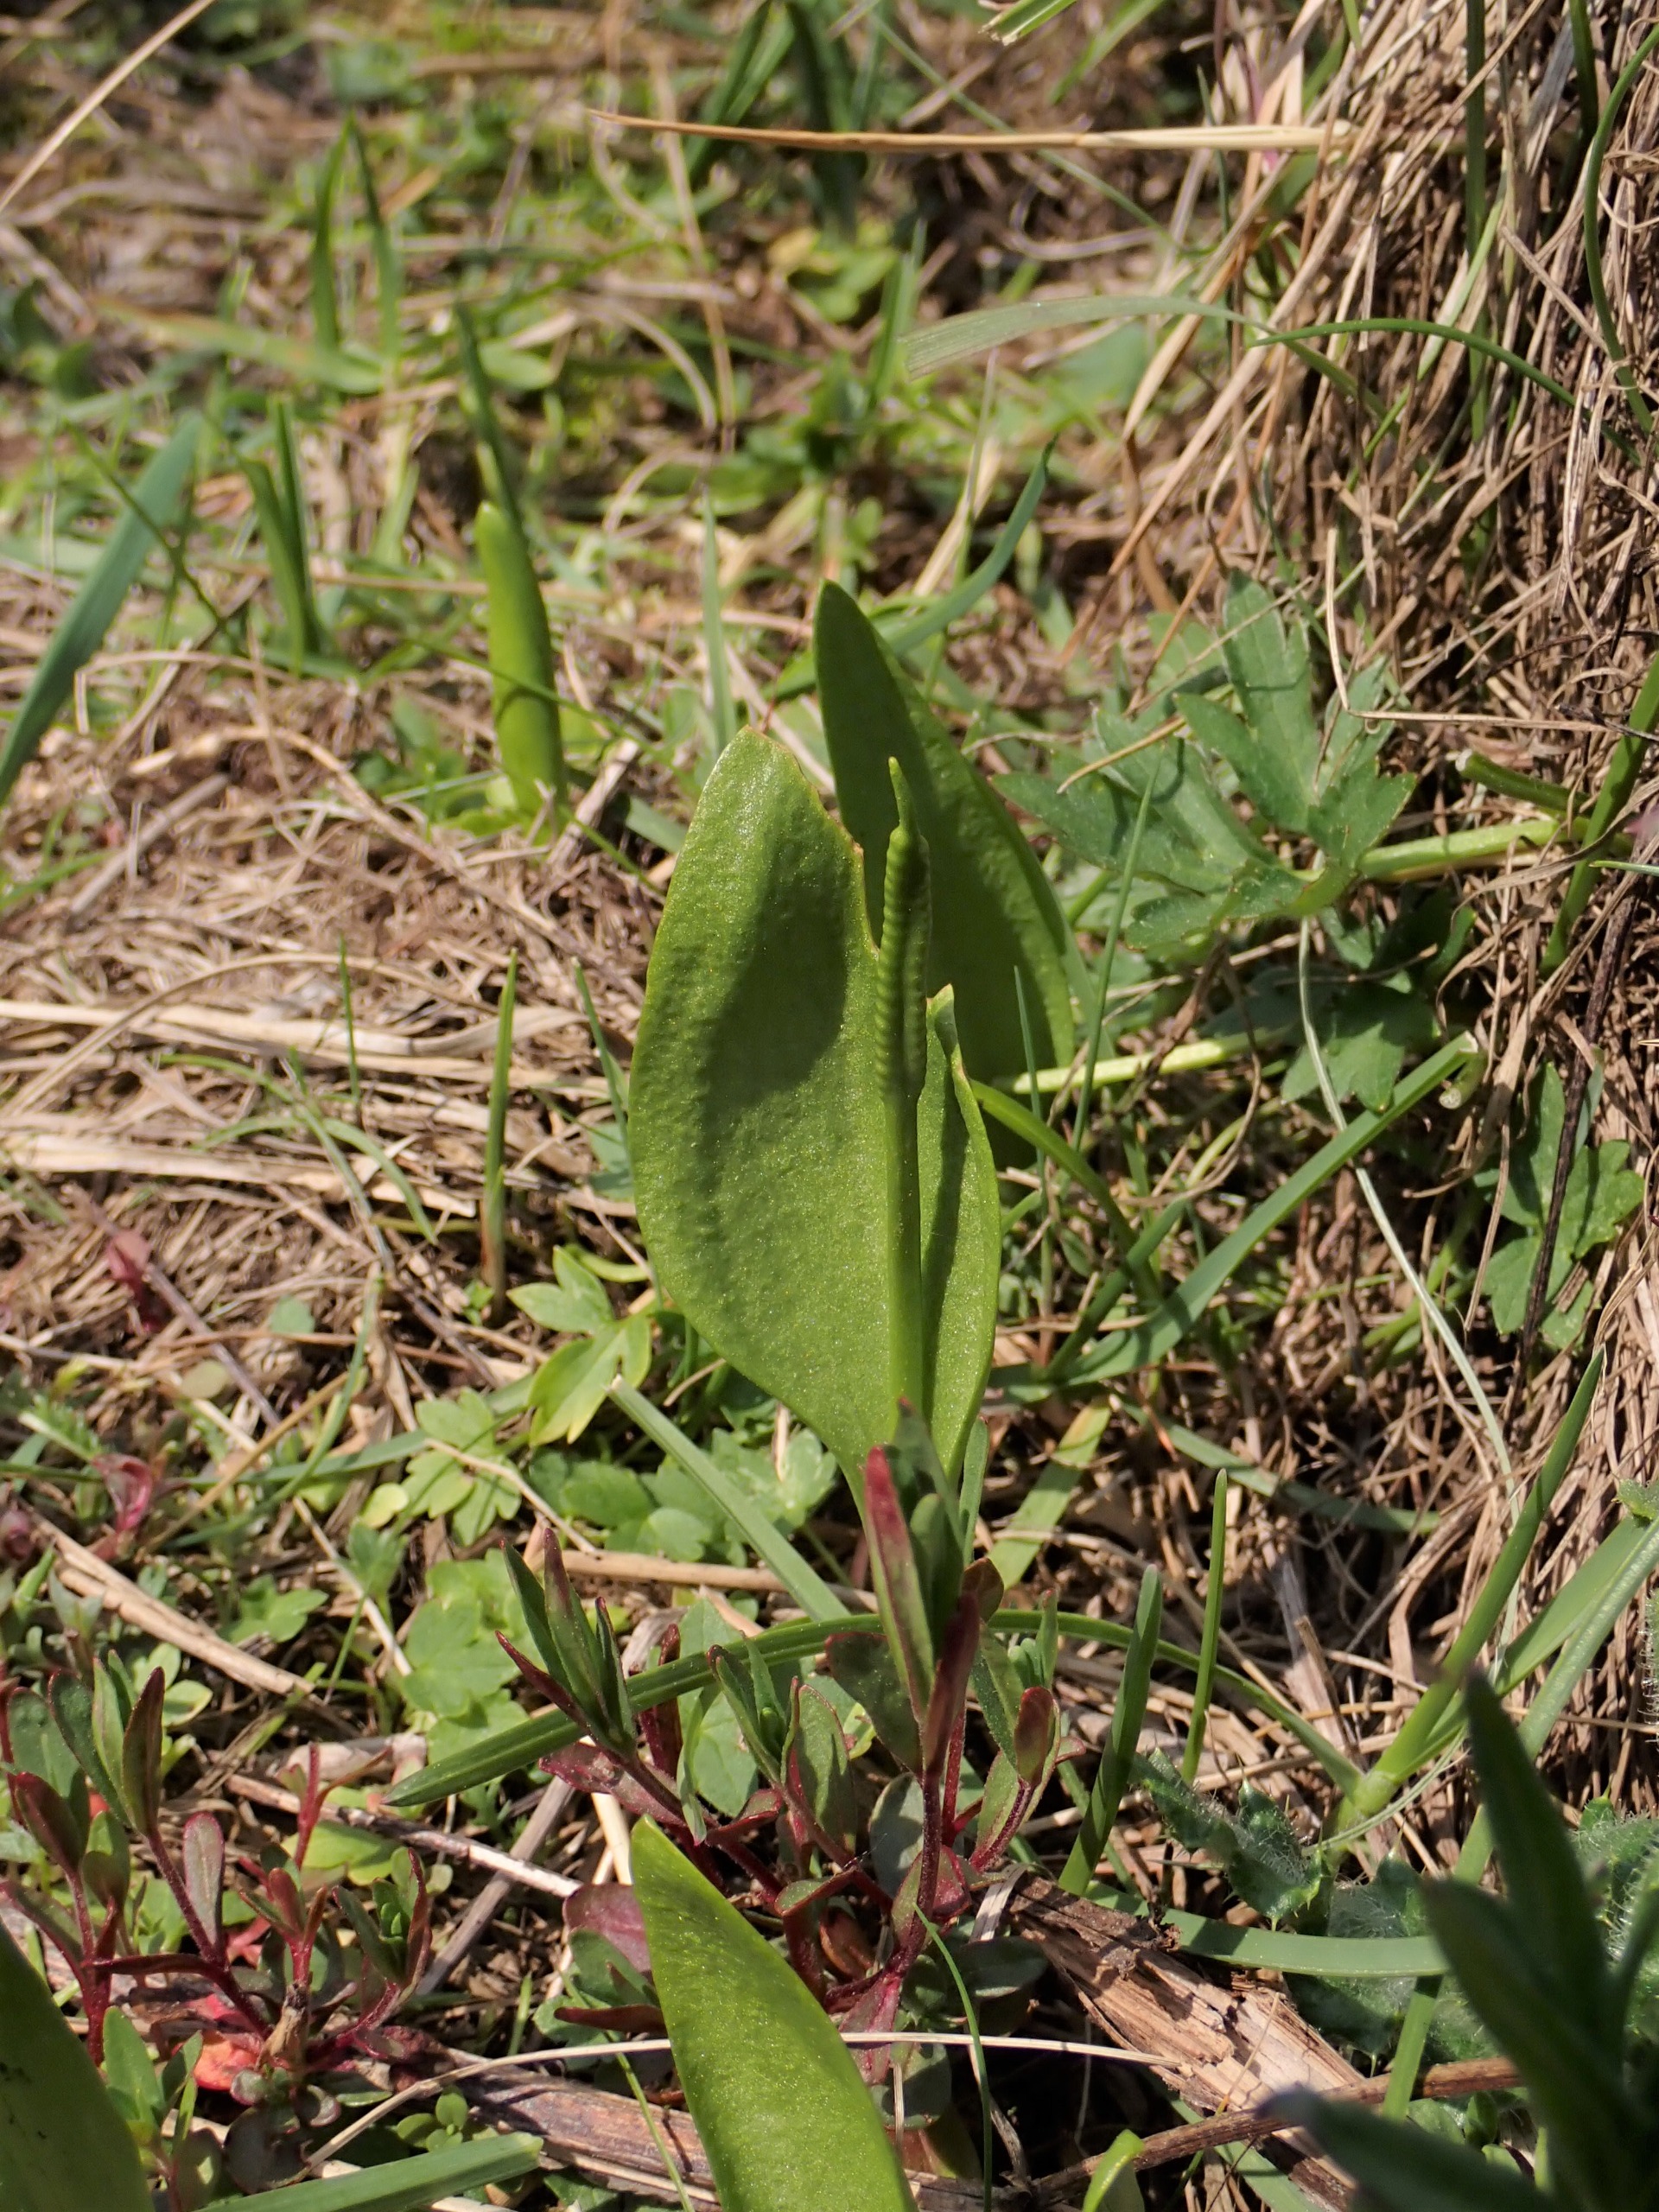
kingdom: Plantae
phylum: Tracheophyta
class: Polypodiopsida
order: Ophioglossales
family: Ophioglossaceae
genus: Ophioglossum
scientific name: Ophioglossum vulgatum
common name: Slangetunge
